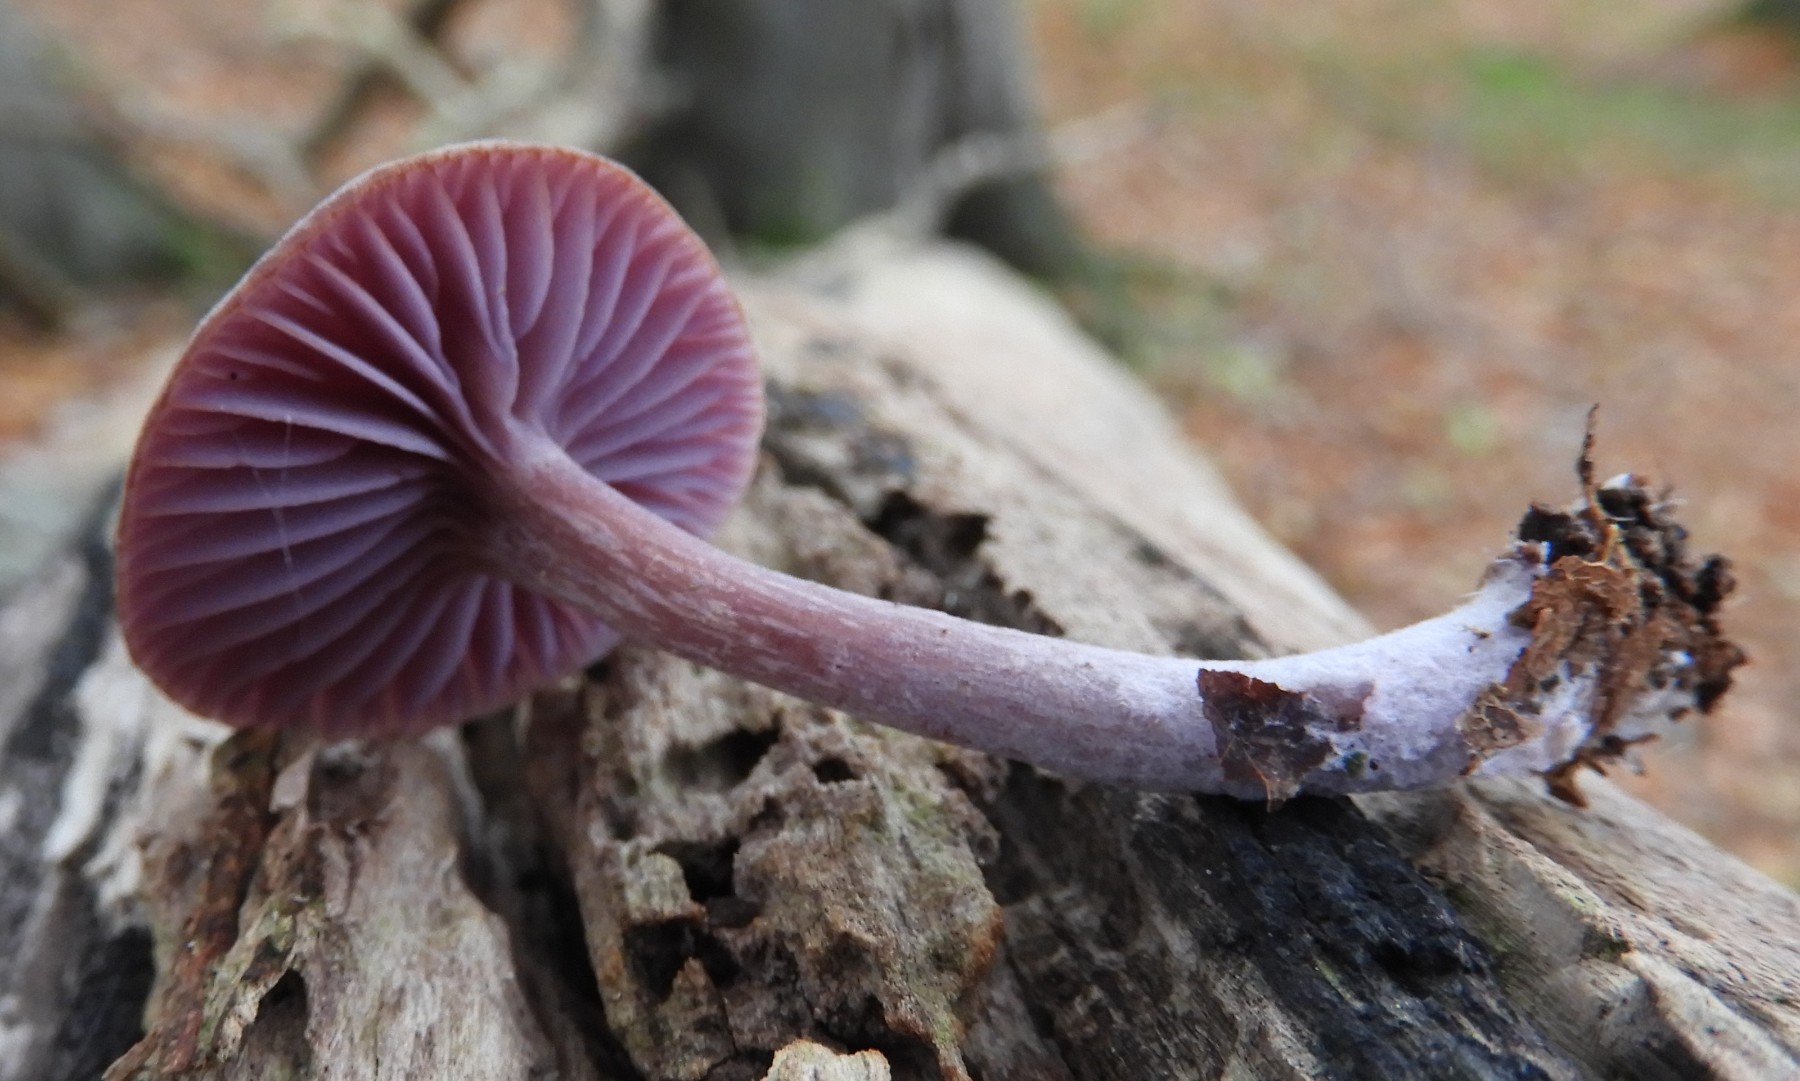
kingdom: Fungi
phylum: Basidiomycota
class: Agaricomycetes
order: Agaricales
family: Hydnangiaceae
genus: Laccaria
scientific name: Laccaria amethystina
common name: violet ametysthat
